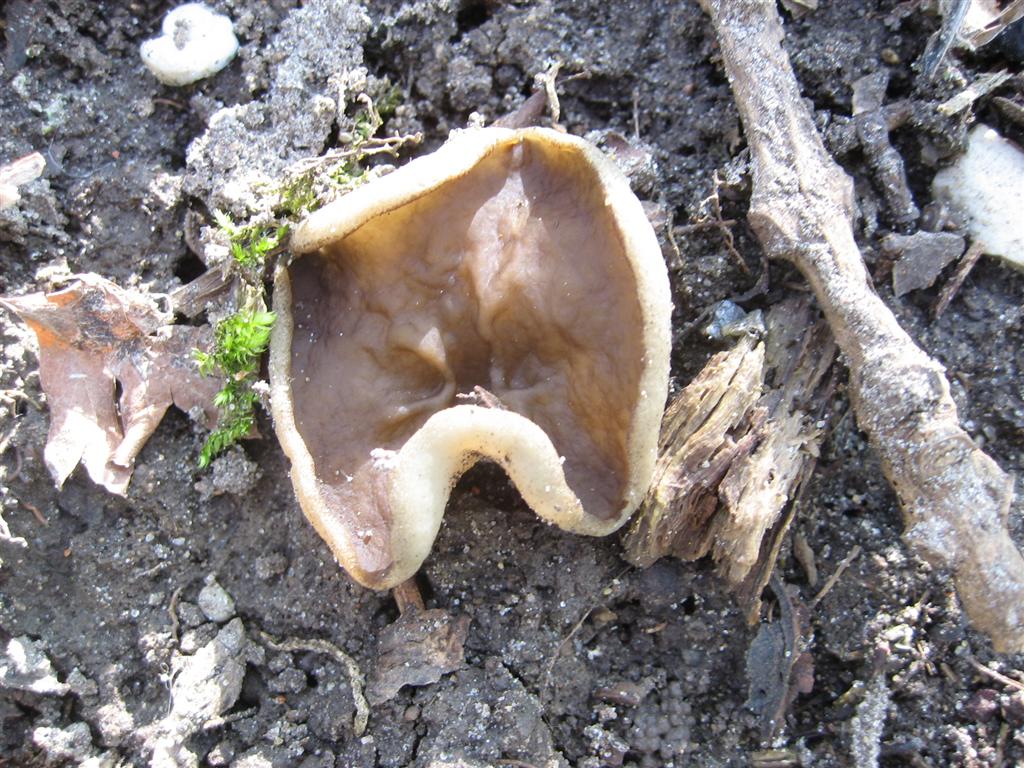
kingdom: Fungi
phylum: Ascomycota
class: Pezizomycetes
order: Pezizales
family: Morchellaceae
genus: Disciotis
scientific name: Disciotis venosa
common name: klor-bægermorkel
